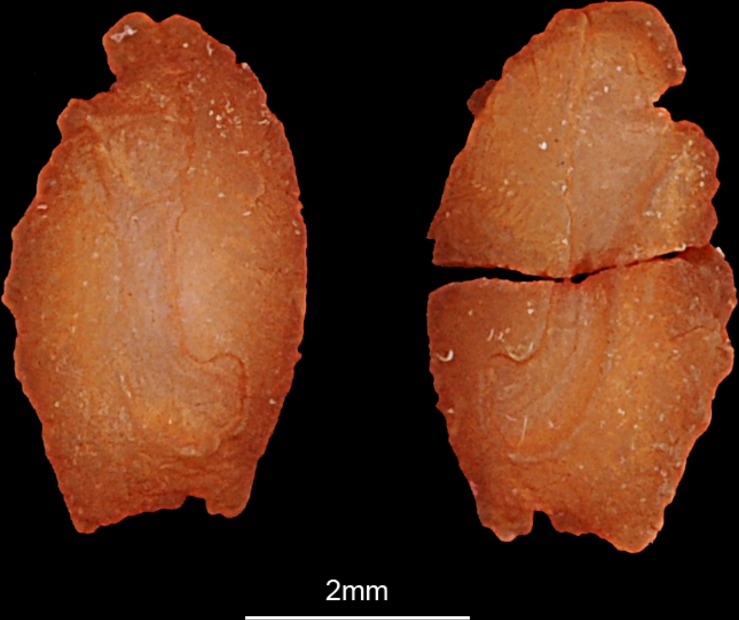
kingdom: Animalia
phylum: Chordata
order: Perciformes
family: Acanthuridae
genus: Acanthurus
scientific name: Acanthurus sohal
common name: Red sea surgeonfish
